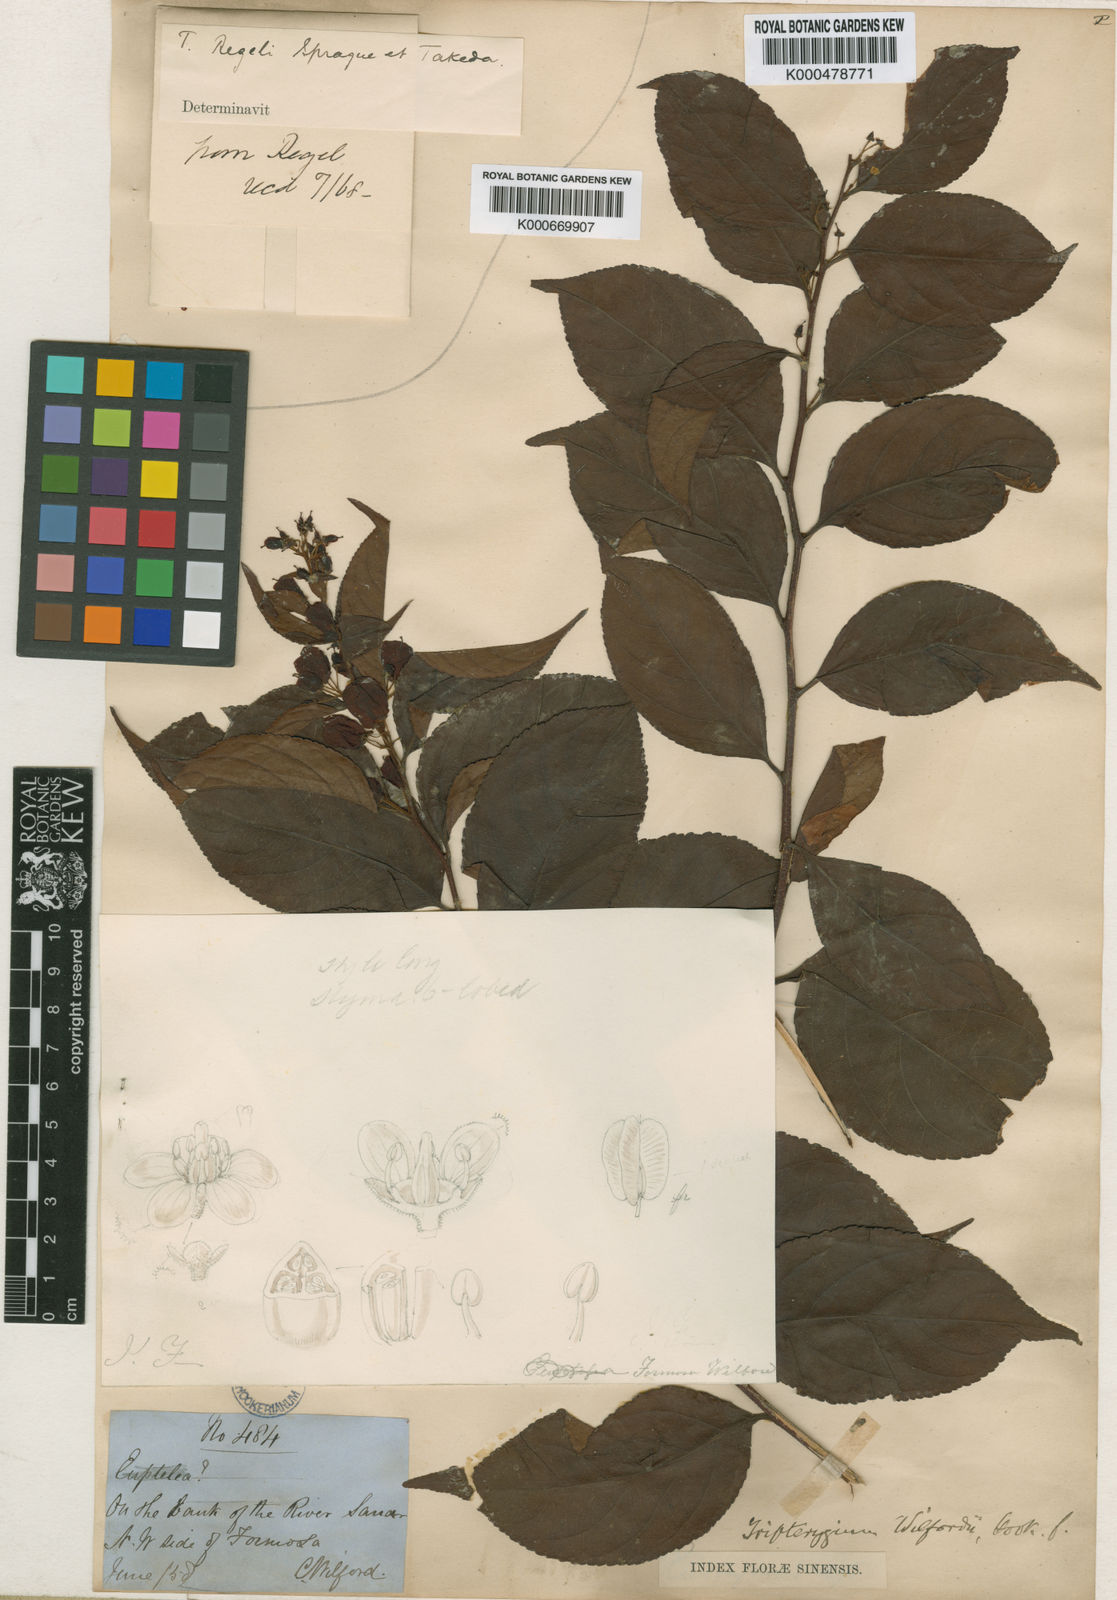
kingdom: Plantae
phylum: Tracheophyta
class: Magnoliopsida
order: Celastrales
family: Celastraceae
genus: Tripterygium
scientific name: Tripterygium wilfordii
